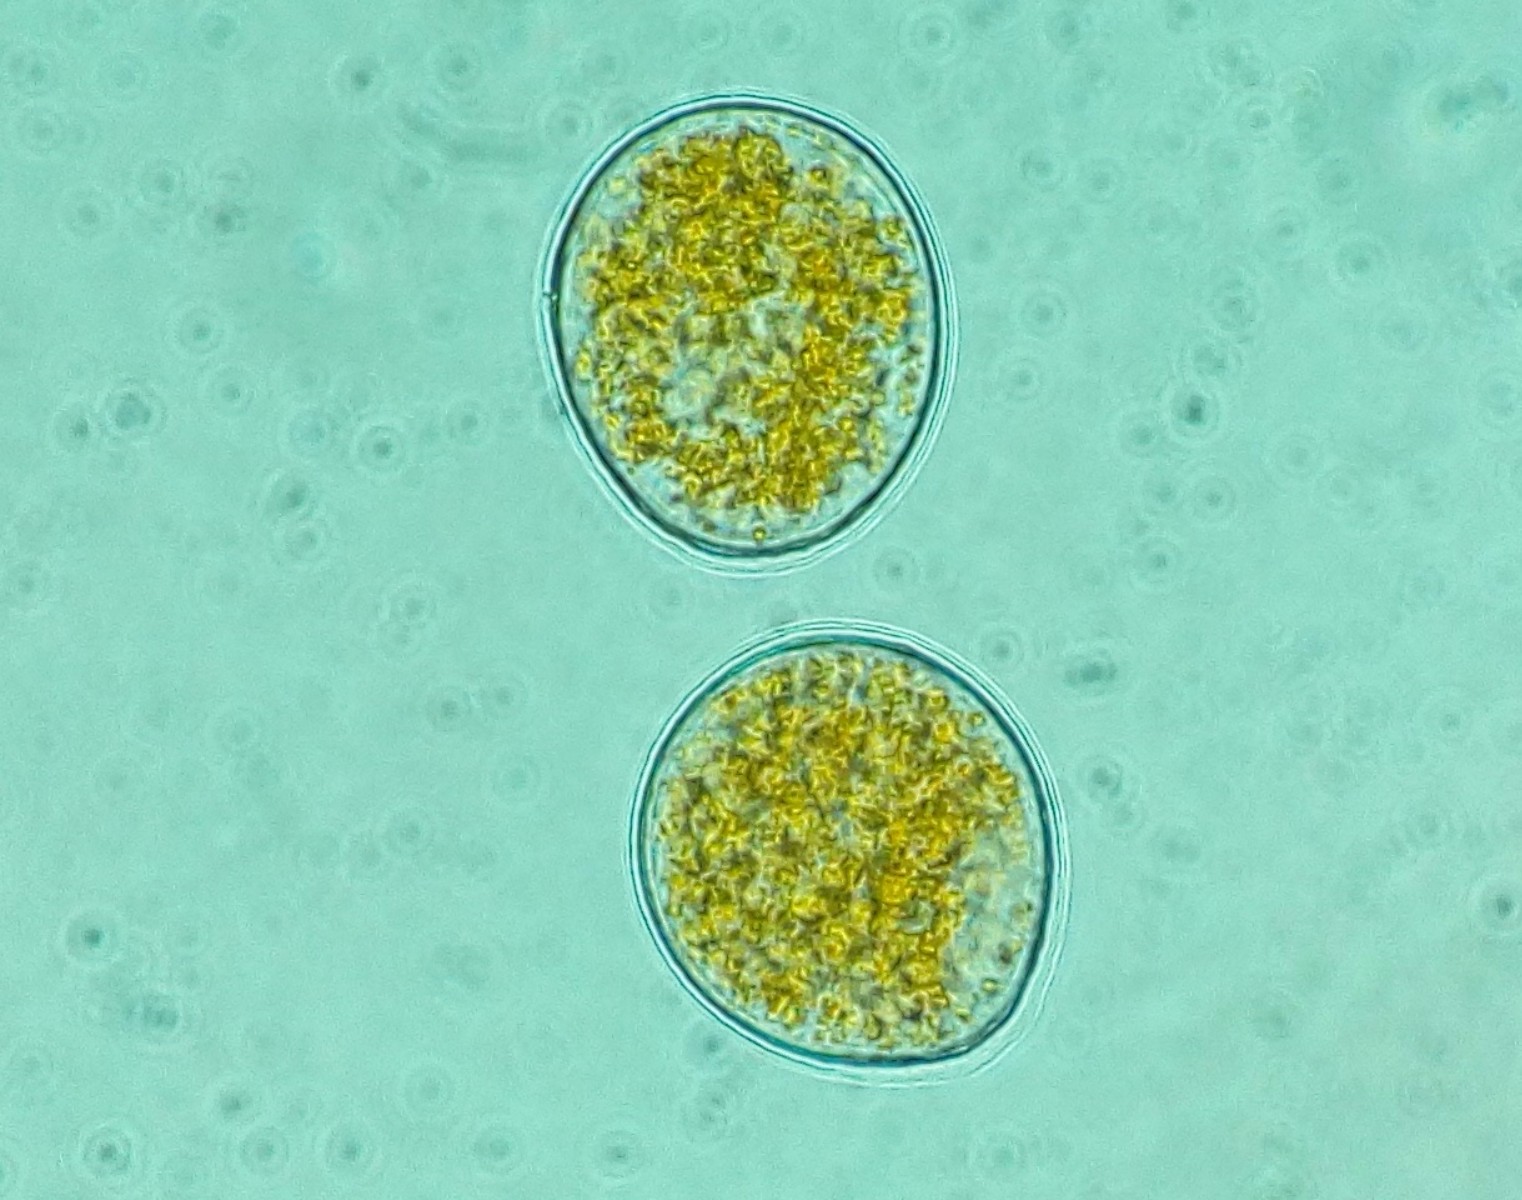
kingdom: Fungi
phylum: Basidiomycota
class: Pucciniomycetes
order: Pucciniales
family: Pucciniaceae
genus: Puccinia
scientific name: Puccinia festucae
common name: gedeblad-tvecellerust
